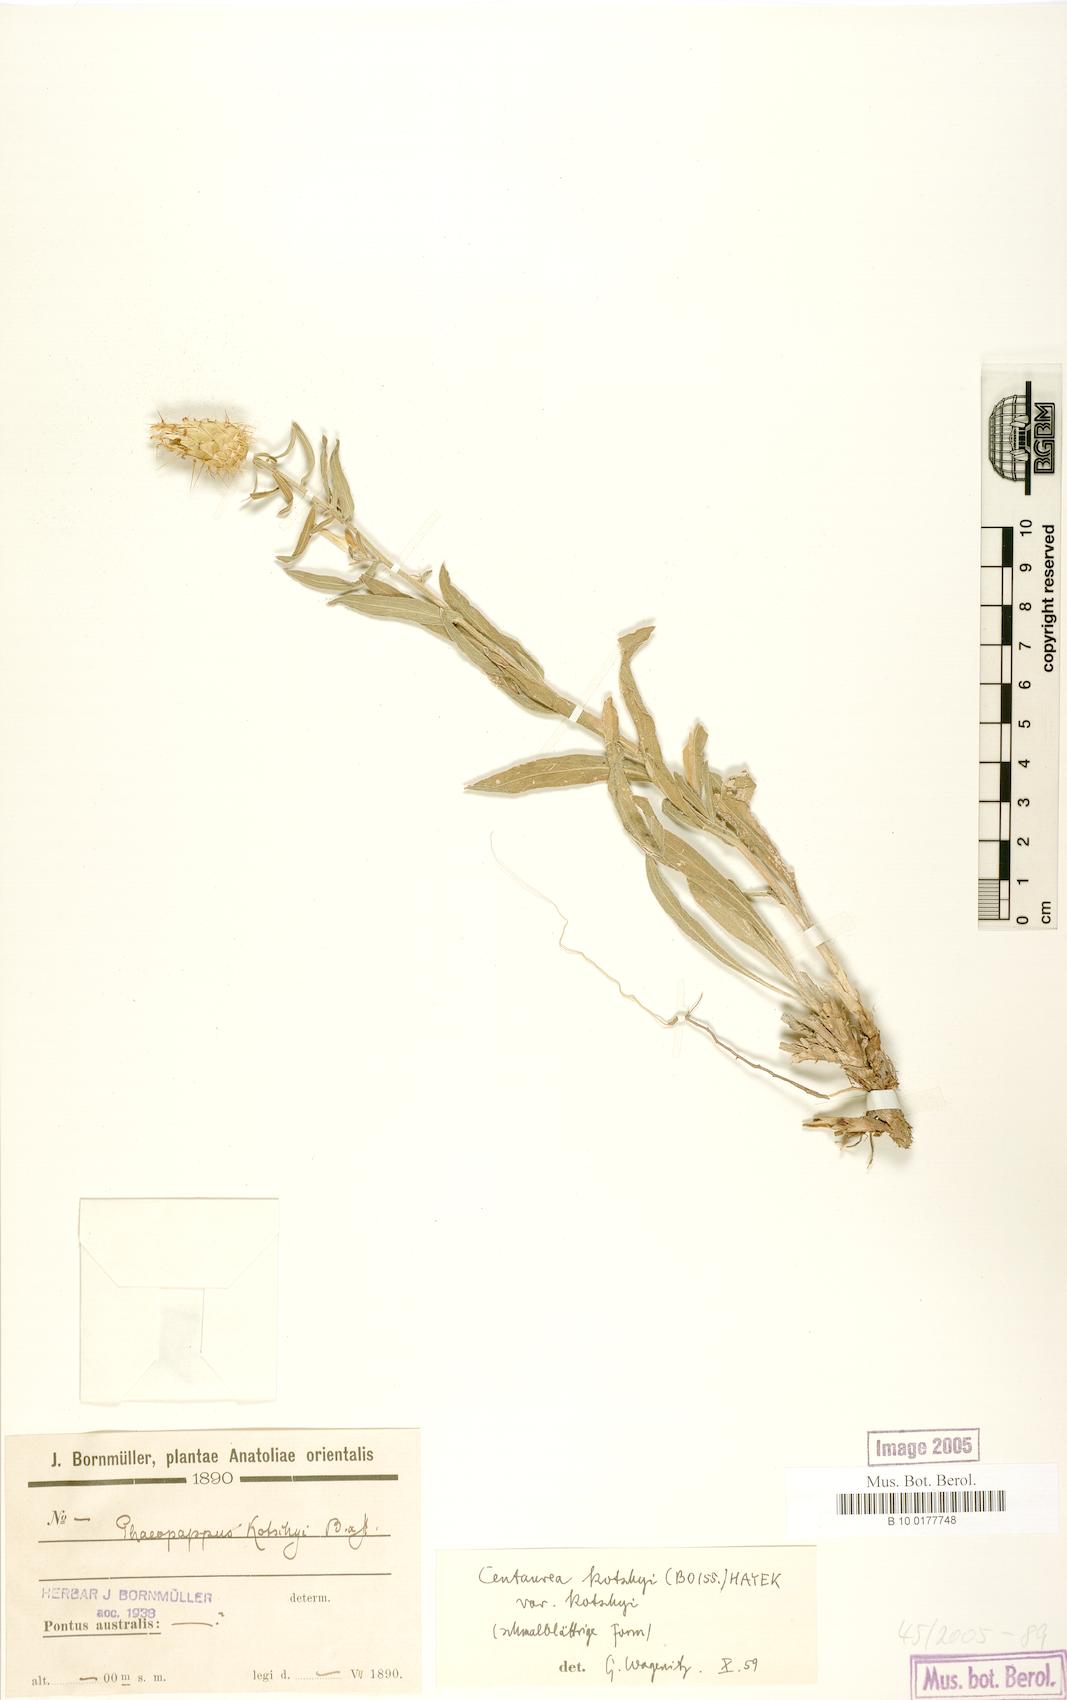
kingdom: Plantae
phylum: Tracheophyta
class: Magnoliopsida
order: Asterales
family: Asteraceae
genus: Centaurea
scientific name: Centaurea kotschyi
